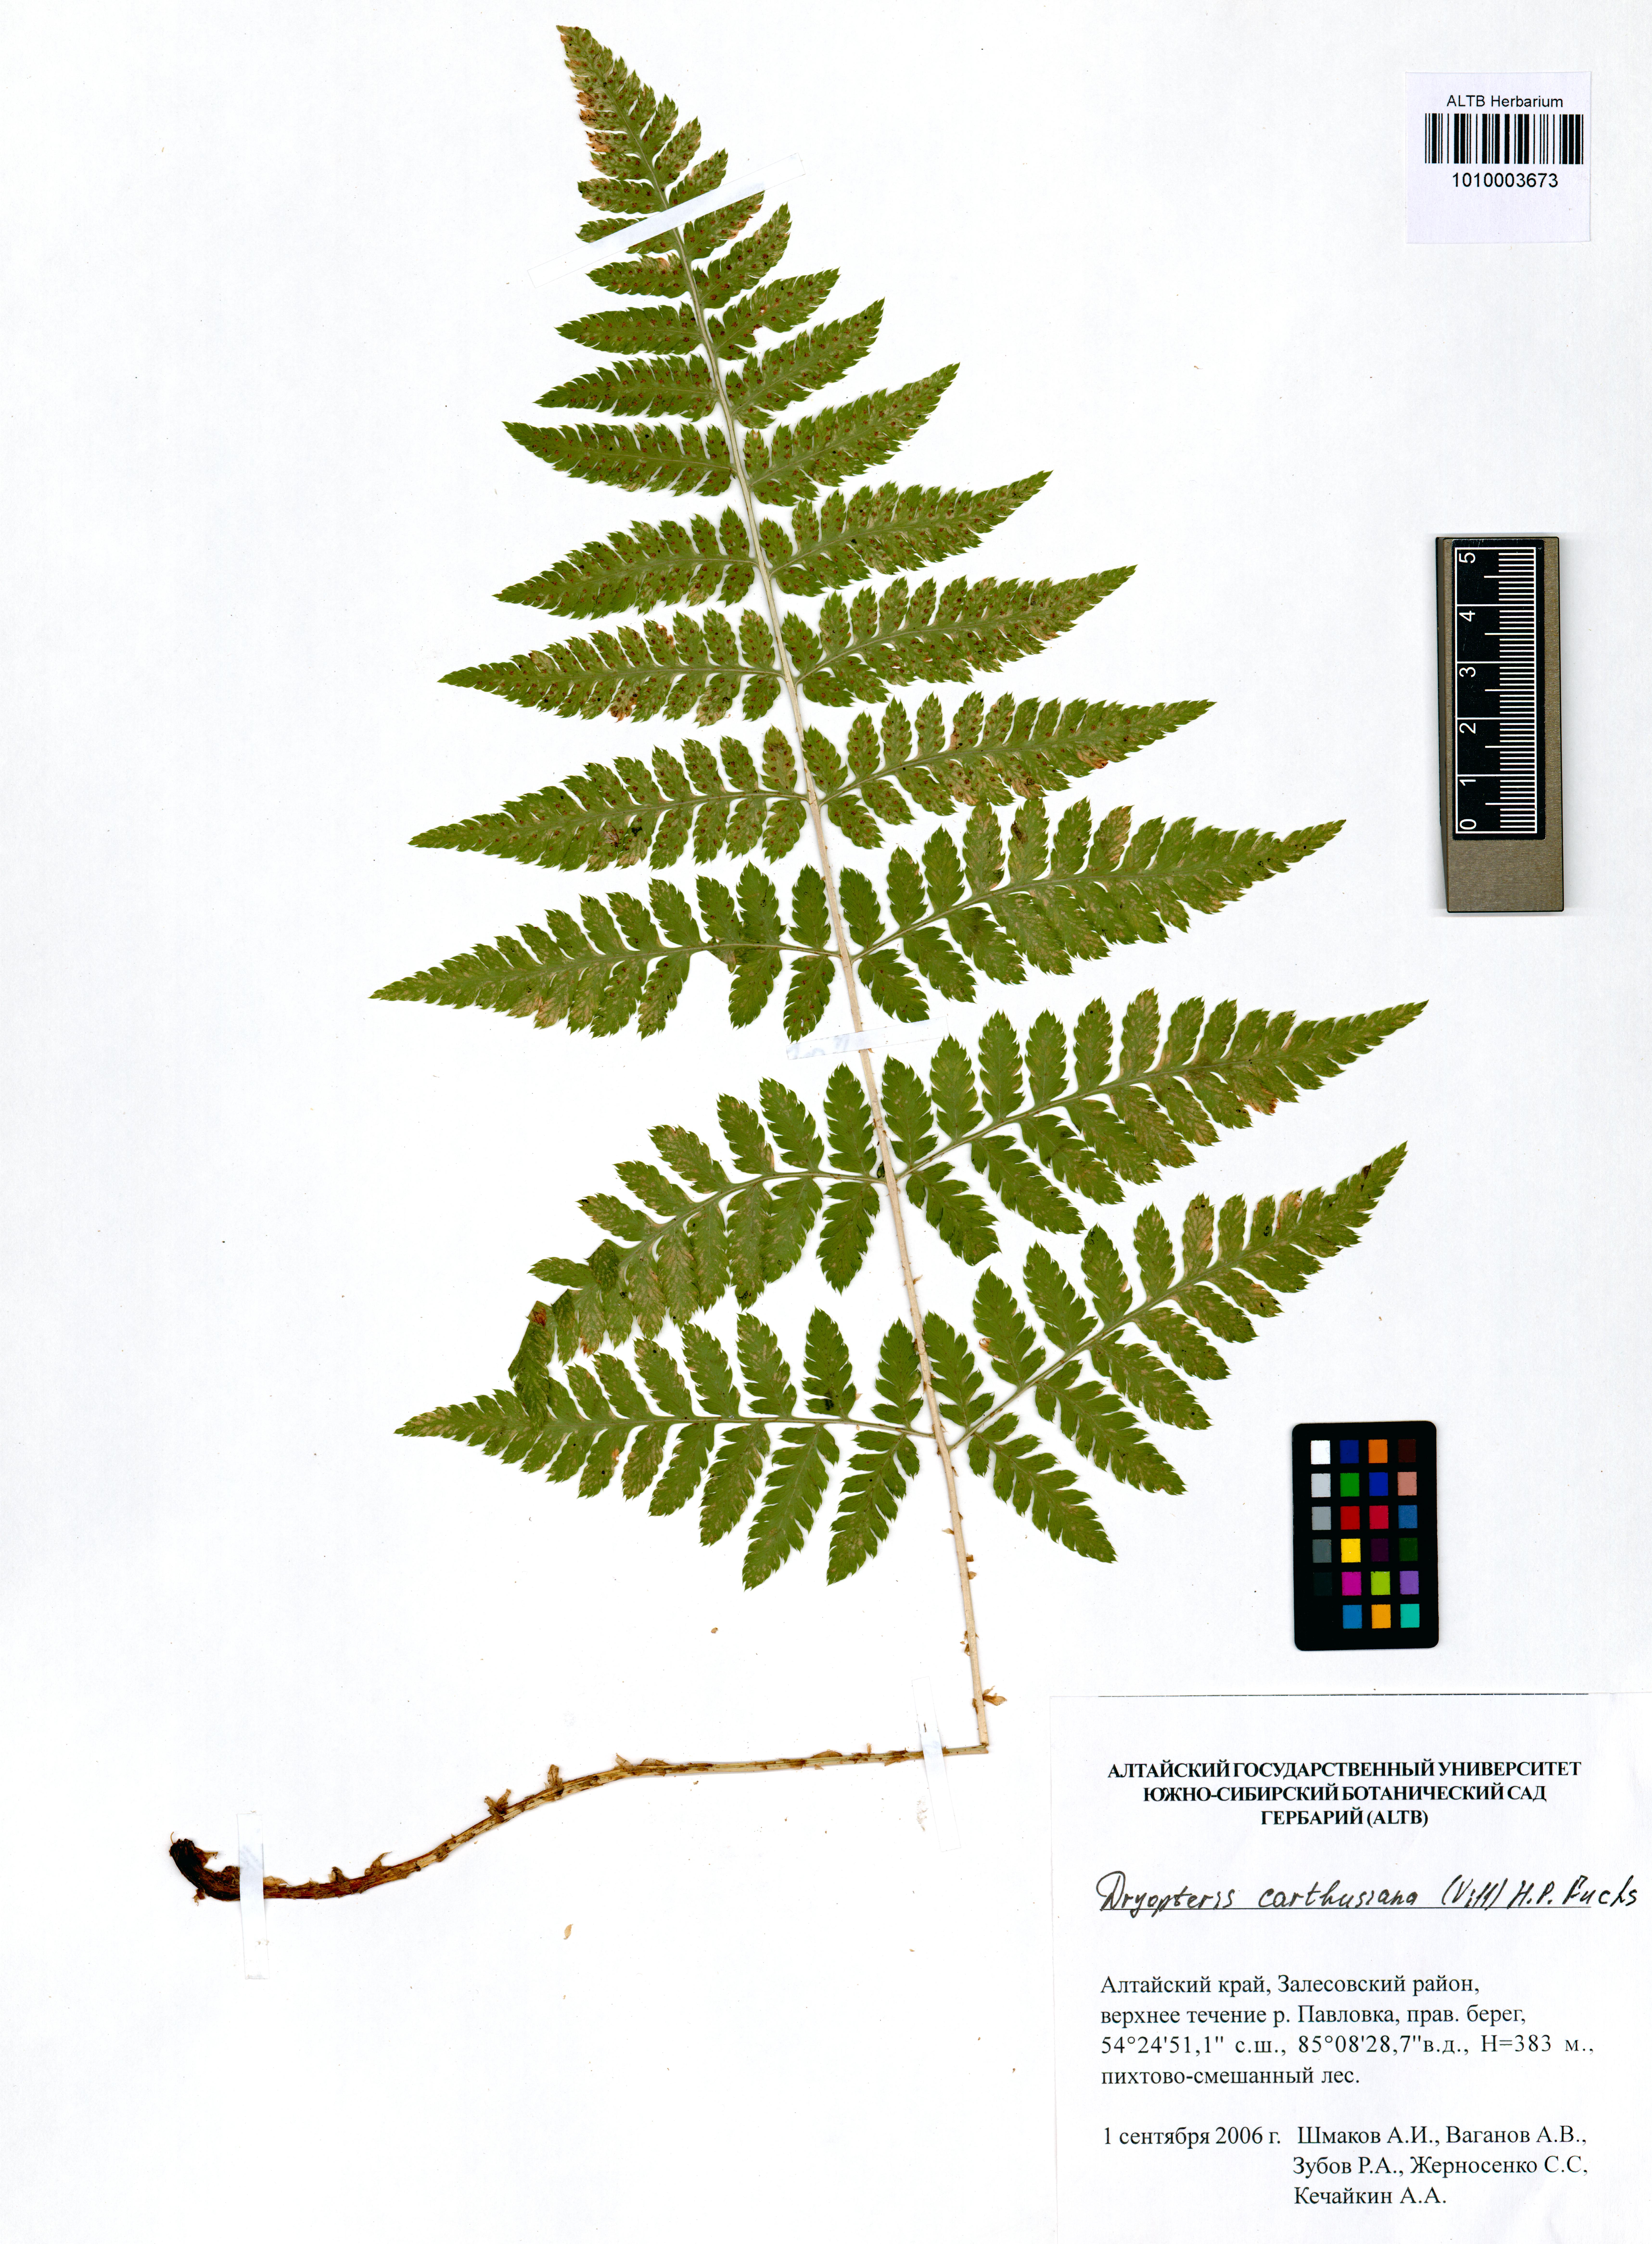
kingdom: Plantae
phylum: Tracheophyta
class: Polypodiopsida
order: Polypodiales
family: Dryopteridaceae
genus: Dryopteris
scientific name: Dryopteris carthusiana
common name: Narrow buckler-fern
